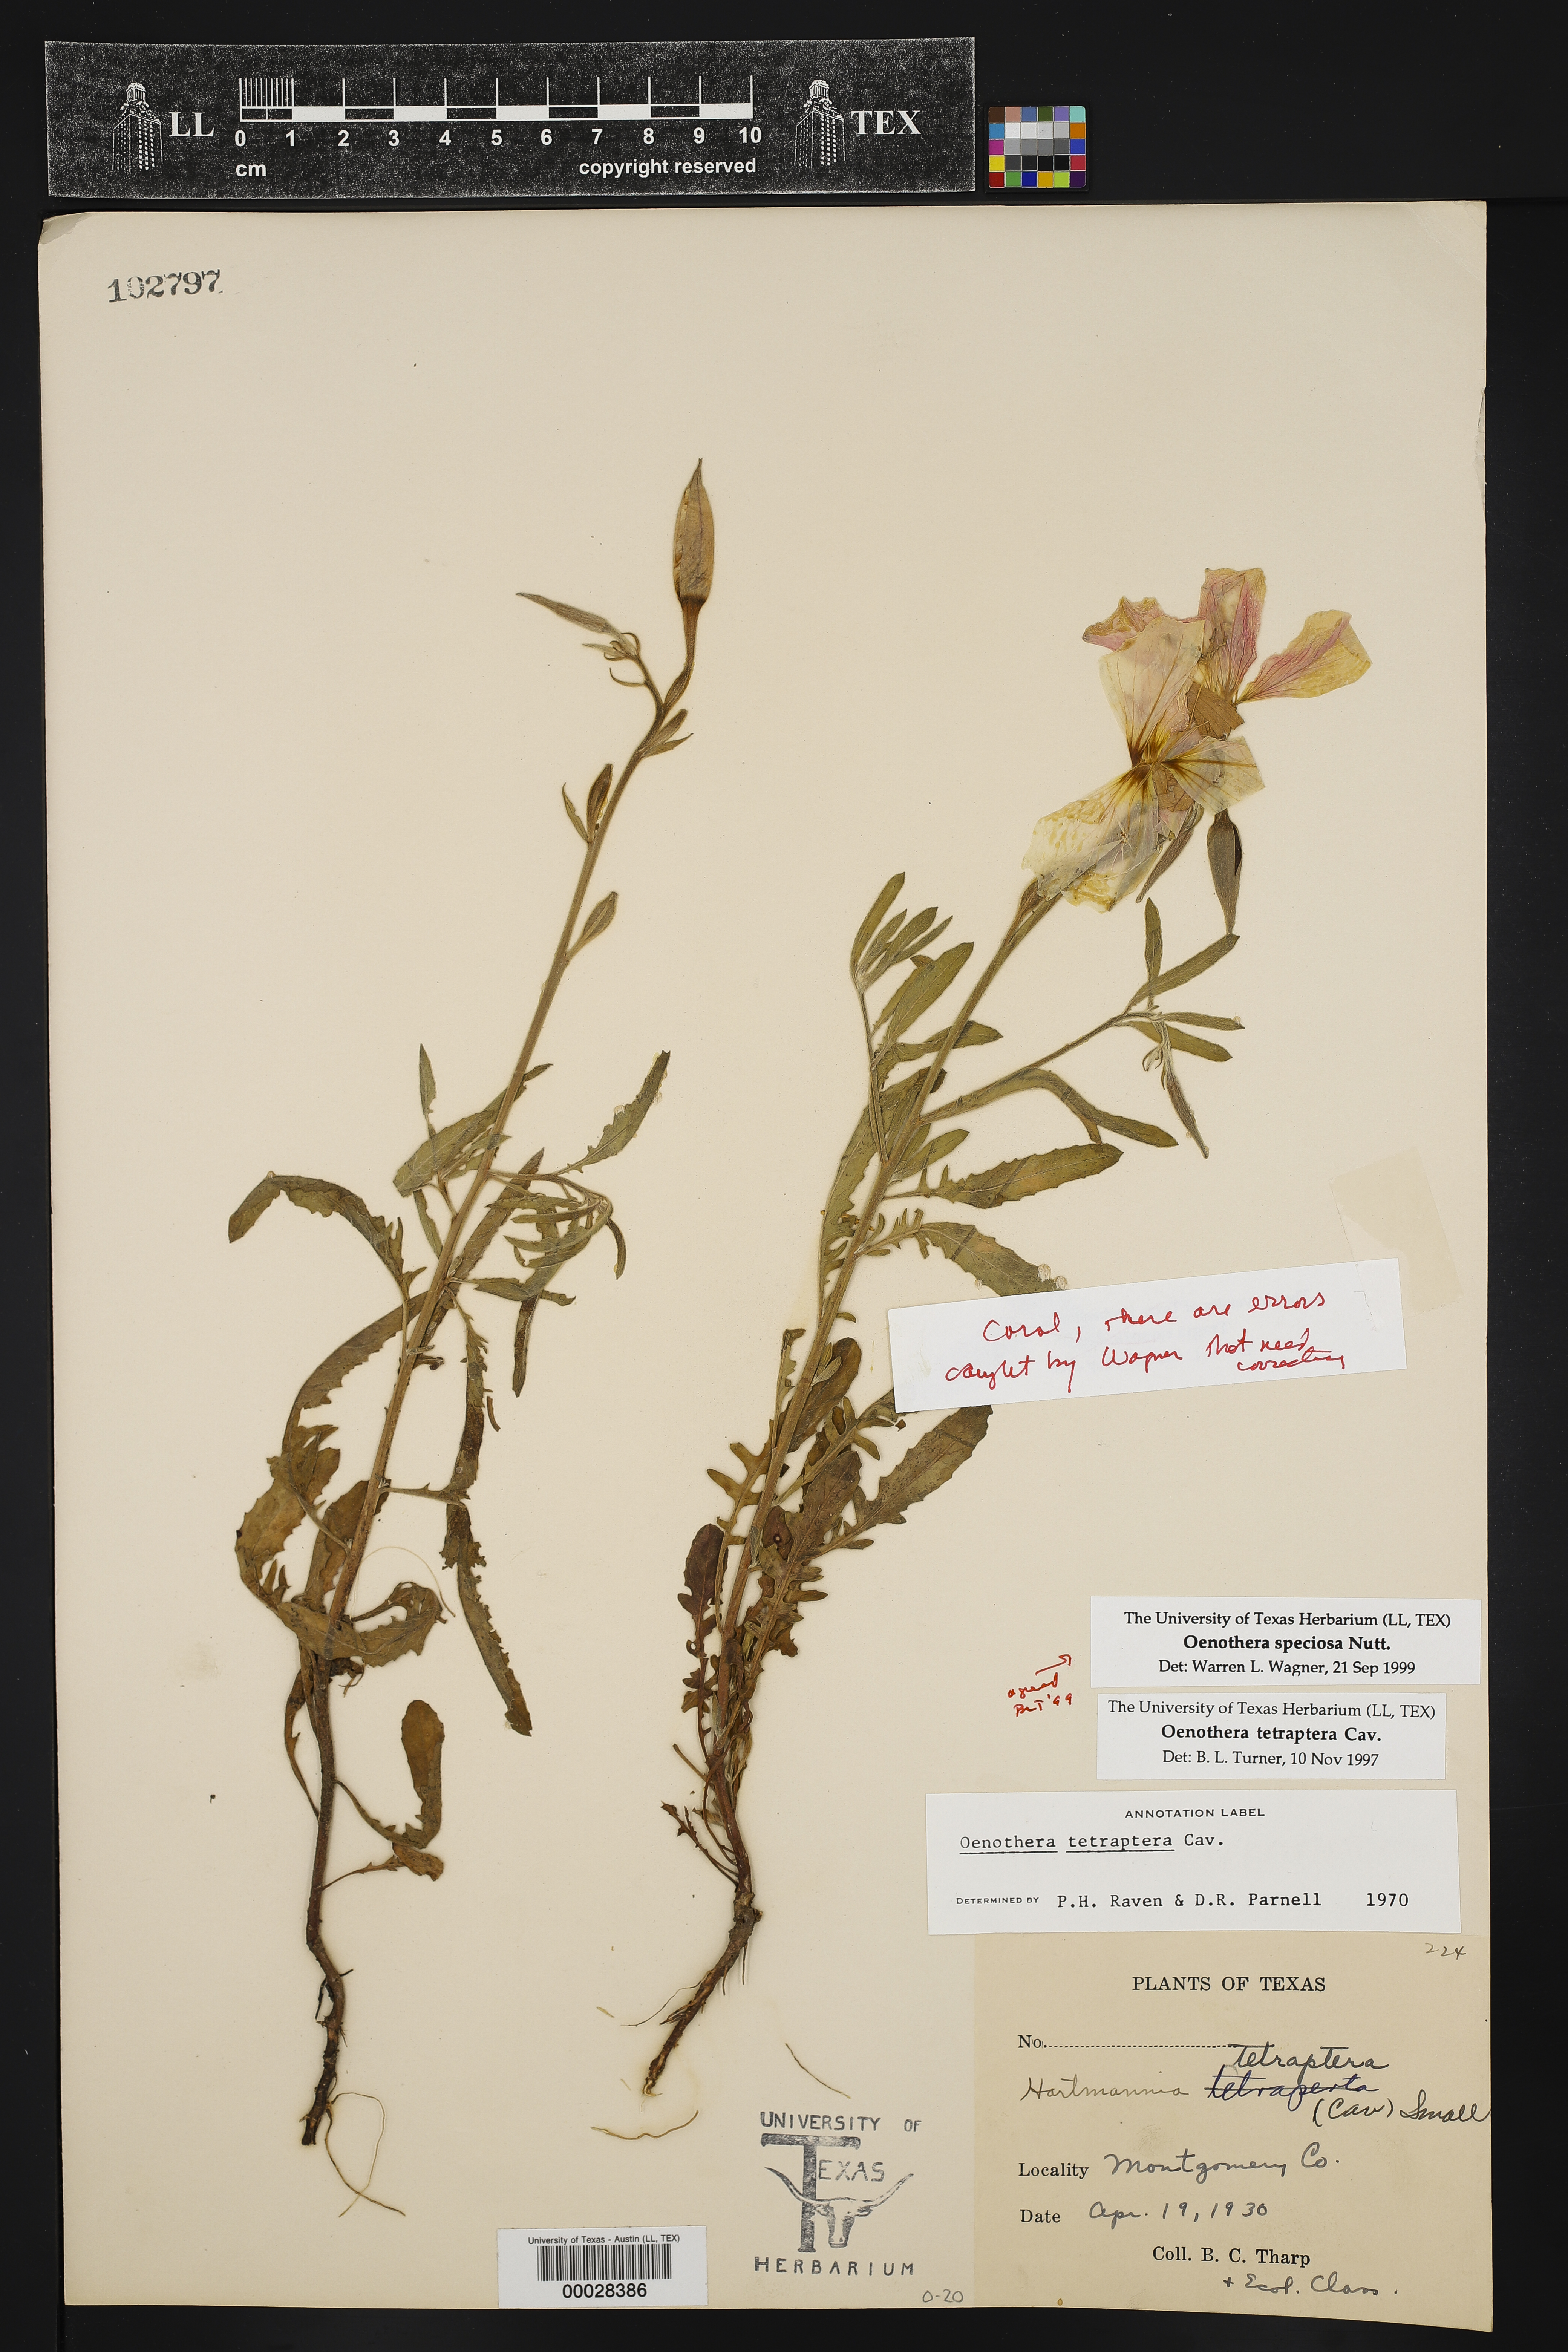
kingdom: Plantae
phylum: Tracheophyta
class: Magnoliopsida
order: Myrtales
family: Onagraceae
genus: Oenothera
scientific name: Oenothera speciosa
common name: White evening-primrose
